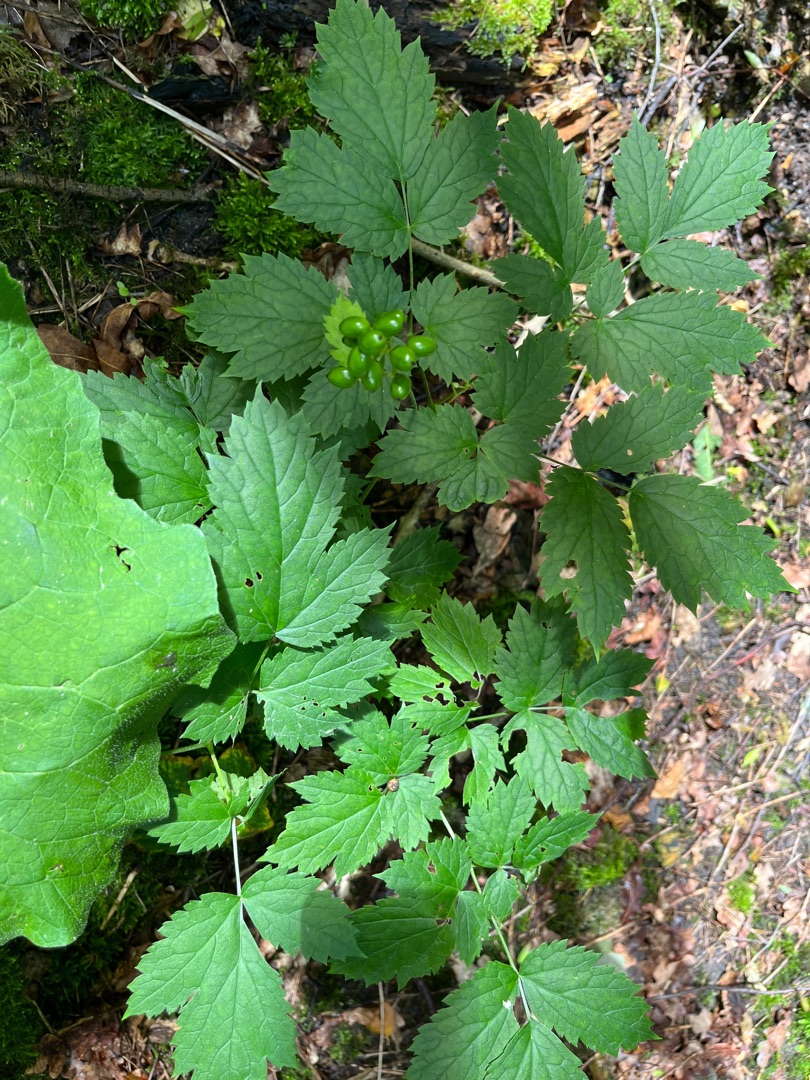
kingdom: Plantae
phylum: Tracheophyta
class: Magnoliopsida
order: Ranunculales
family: Ranunculaceae
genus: Actaea
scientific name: Actaea spicata
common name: Druemunke
